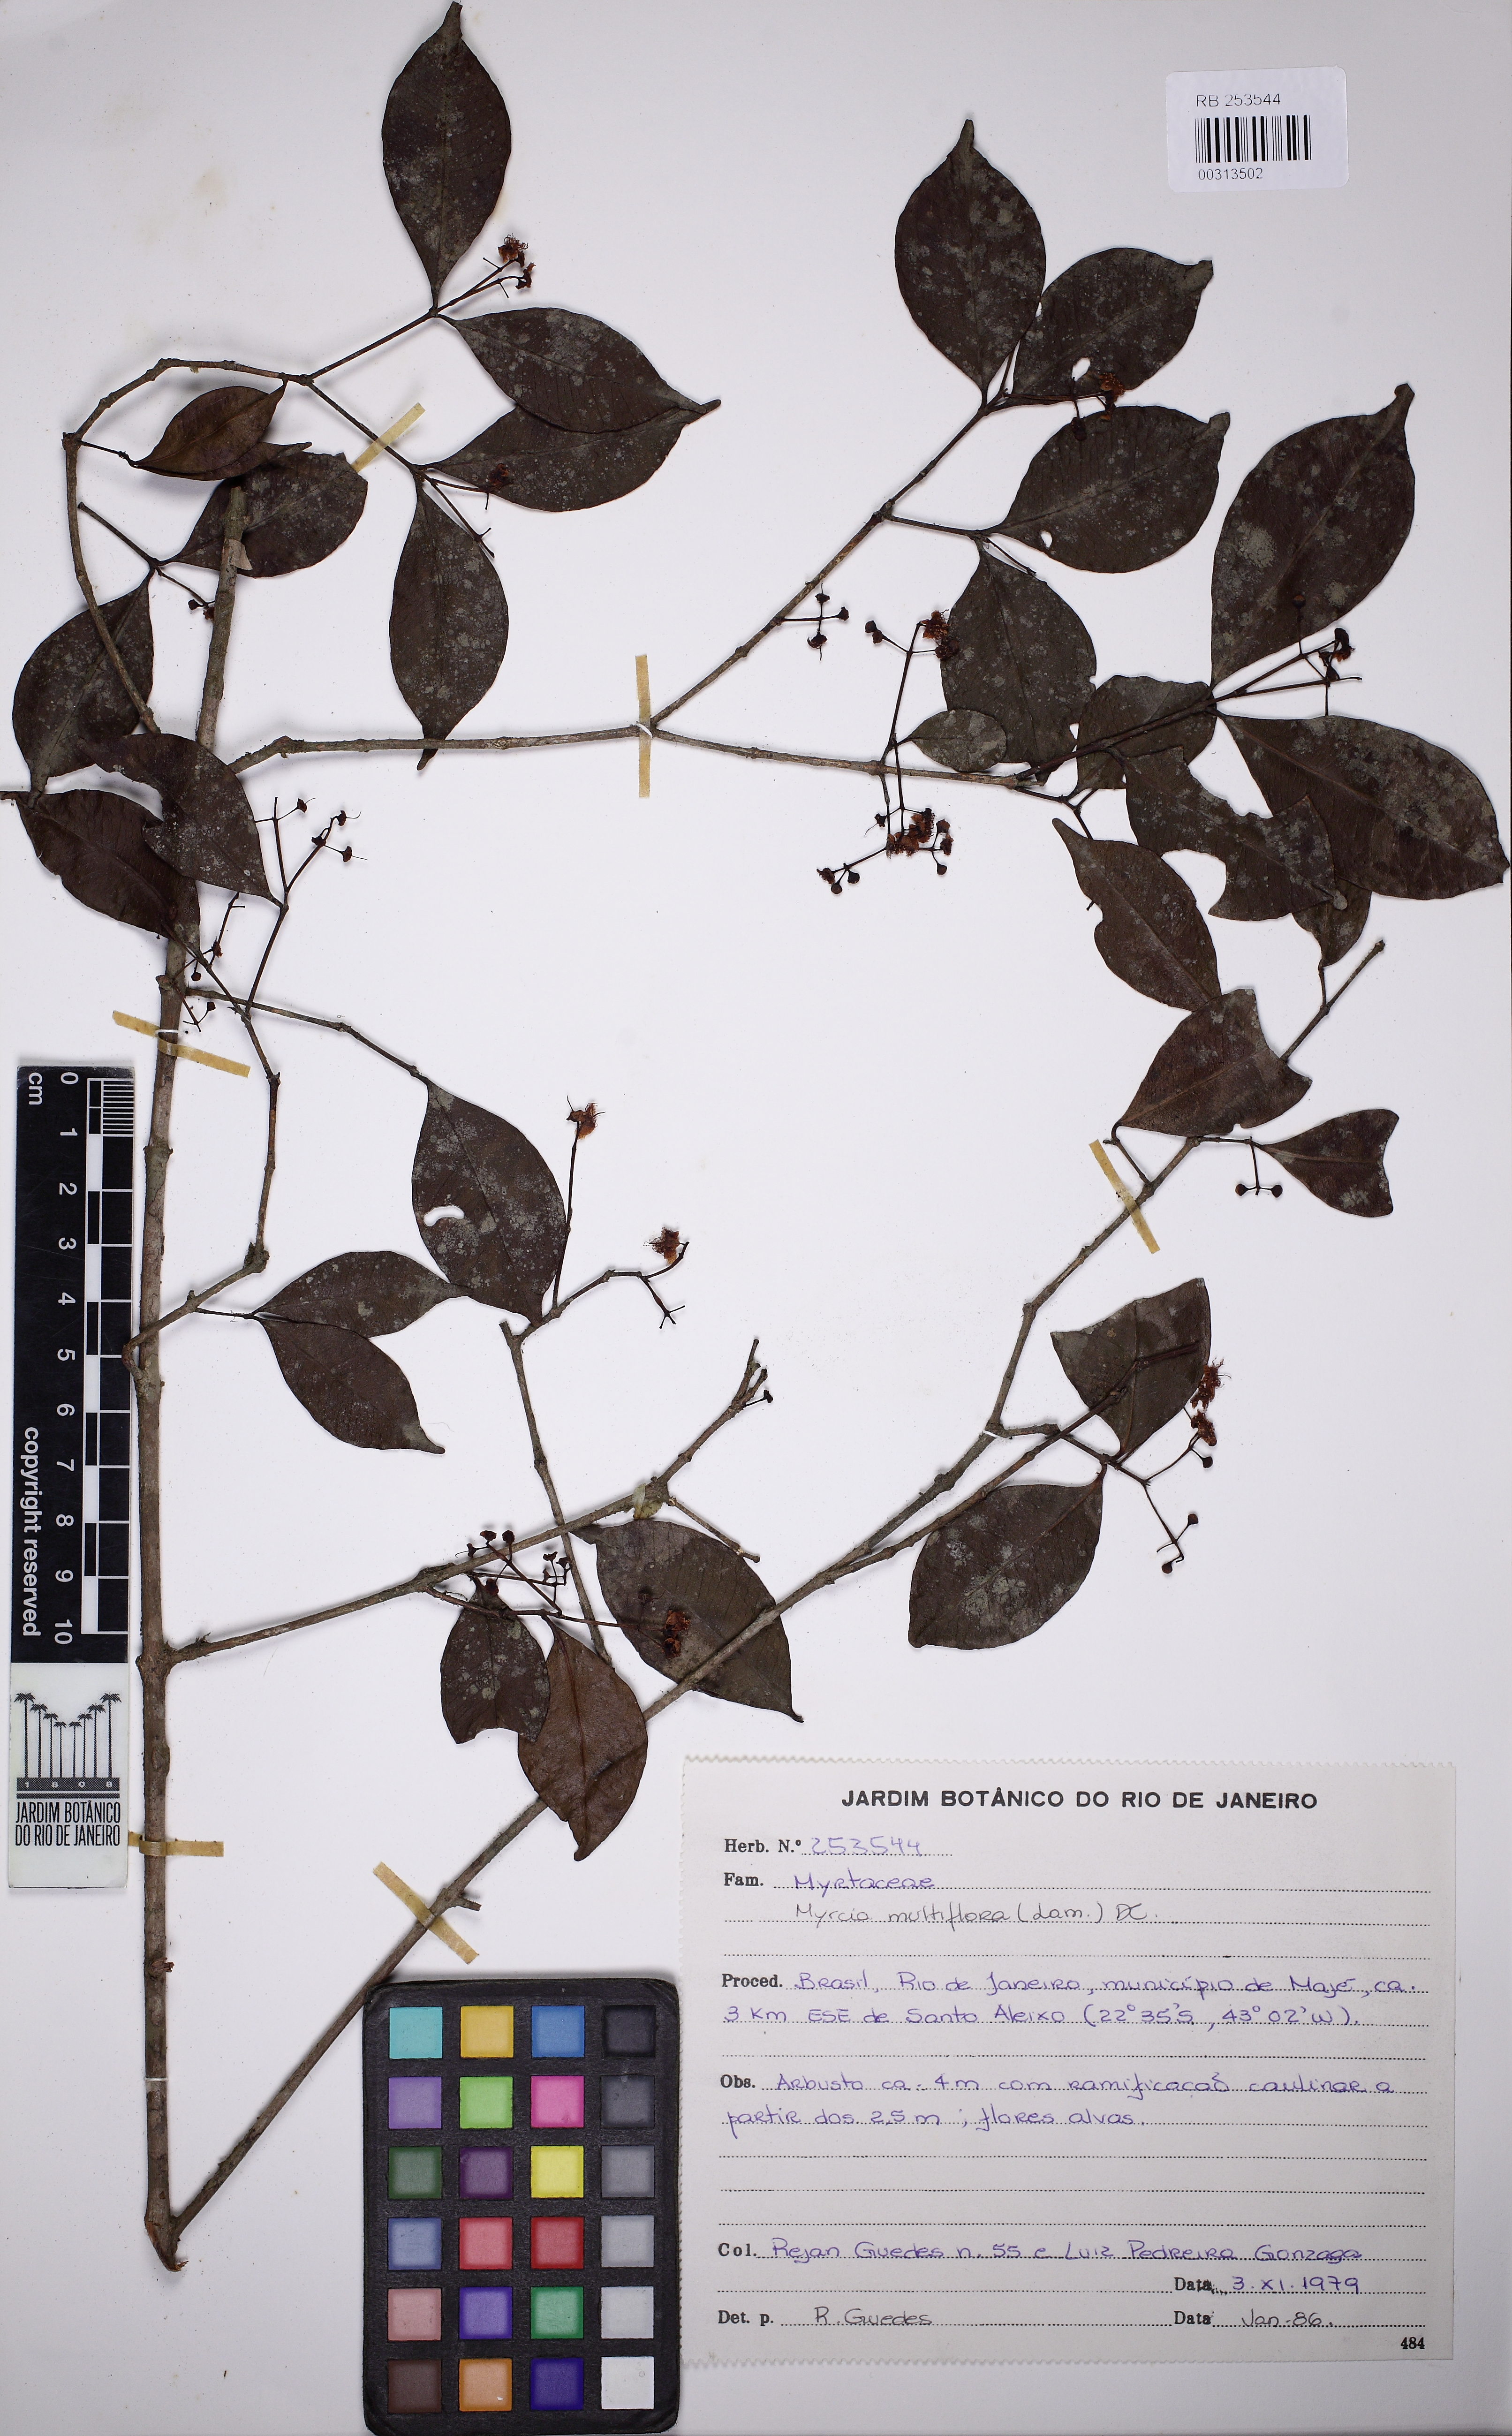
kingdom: Plantae
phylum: Tracheophyta
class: Magnoliopsida
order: Myrtales
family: Myrtaceae
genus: Myrcia
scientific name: Myrcia laxiflora
